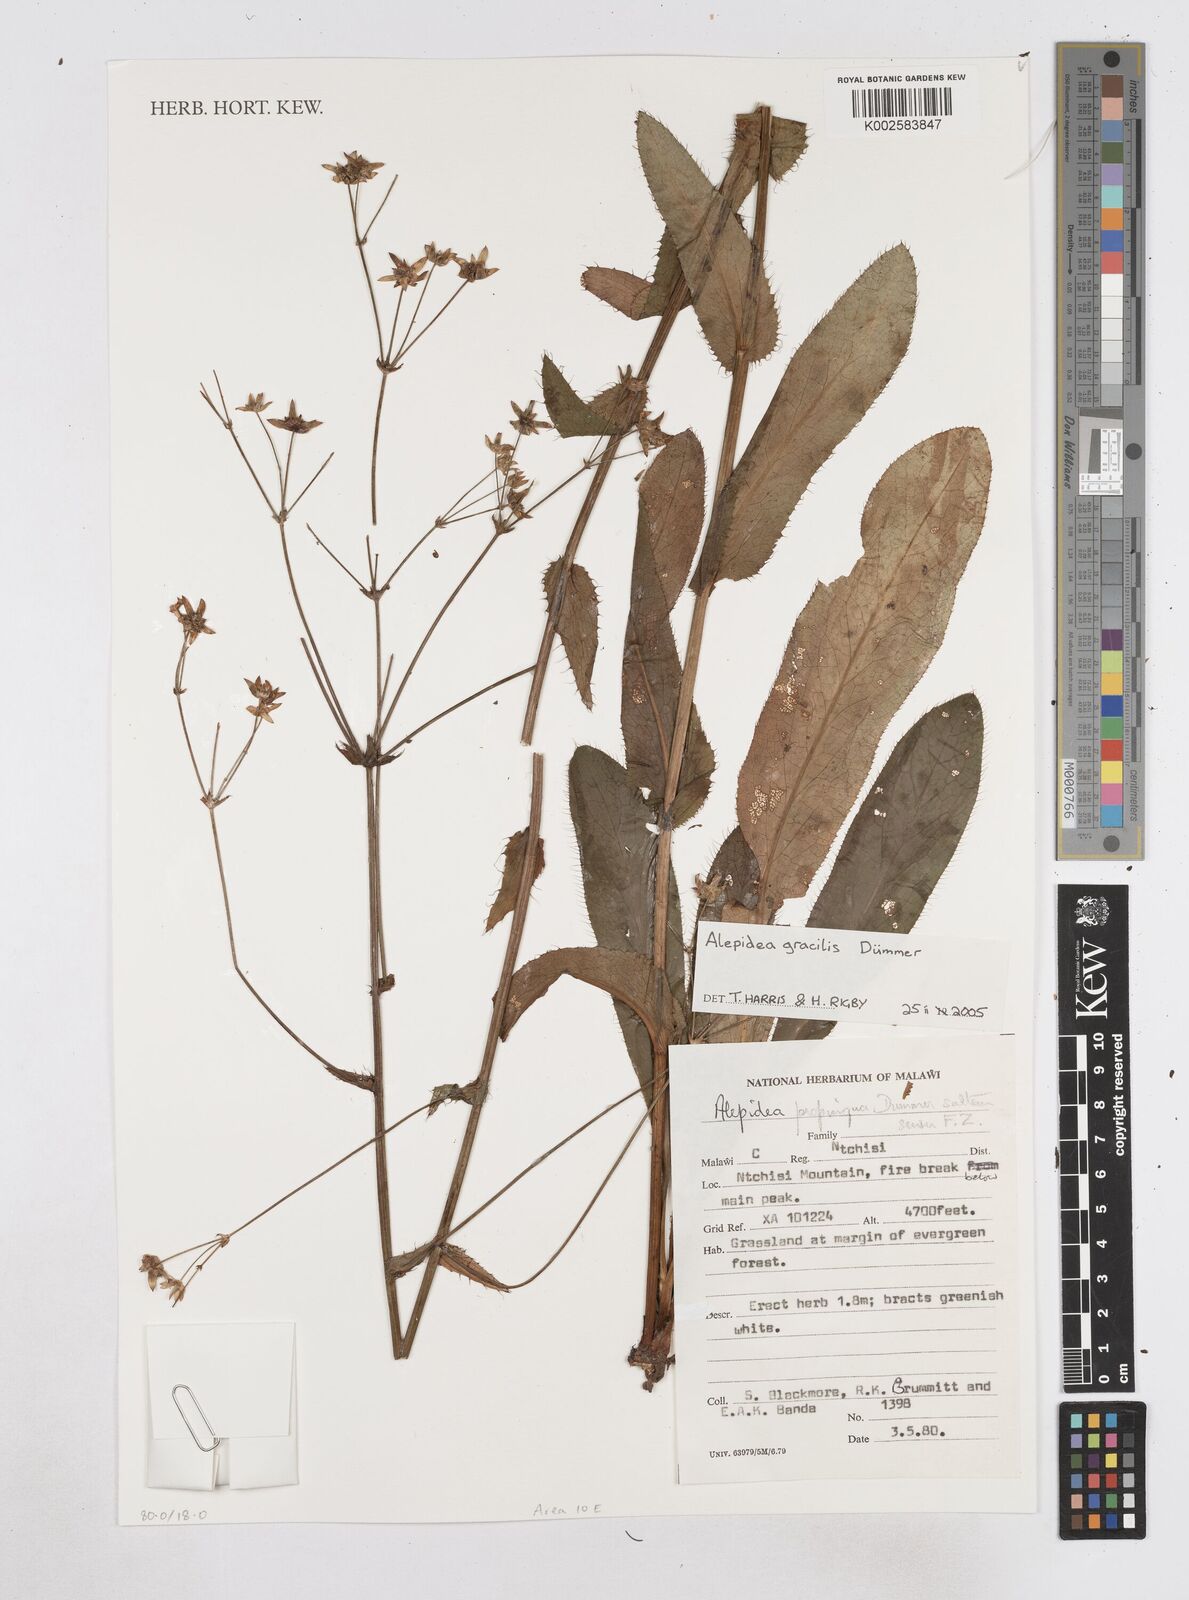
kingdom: Plantae
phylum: Tracheophyta
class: Magnoliopsida
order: Apiales
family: Apiaceae
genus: Alepidea
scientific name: Alepidea peduncularis
